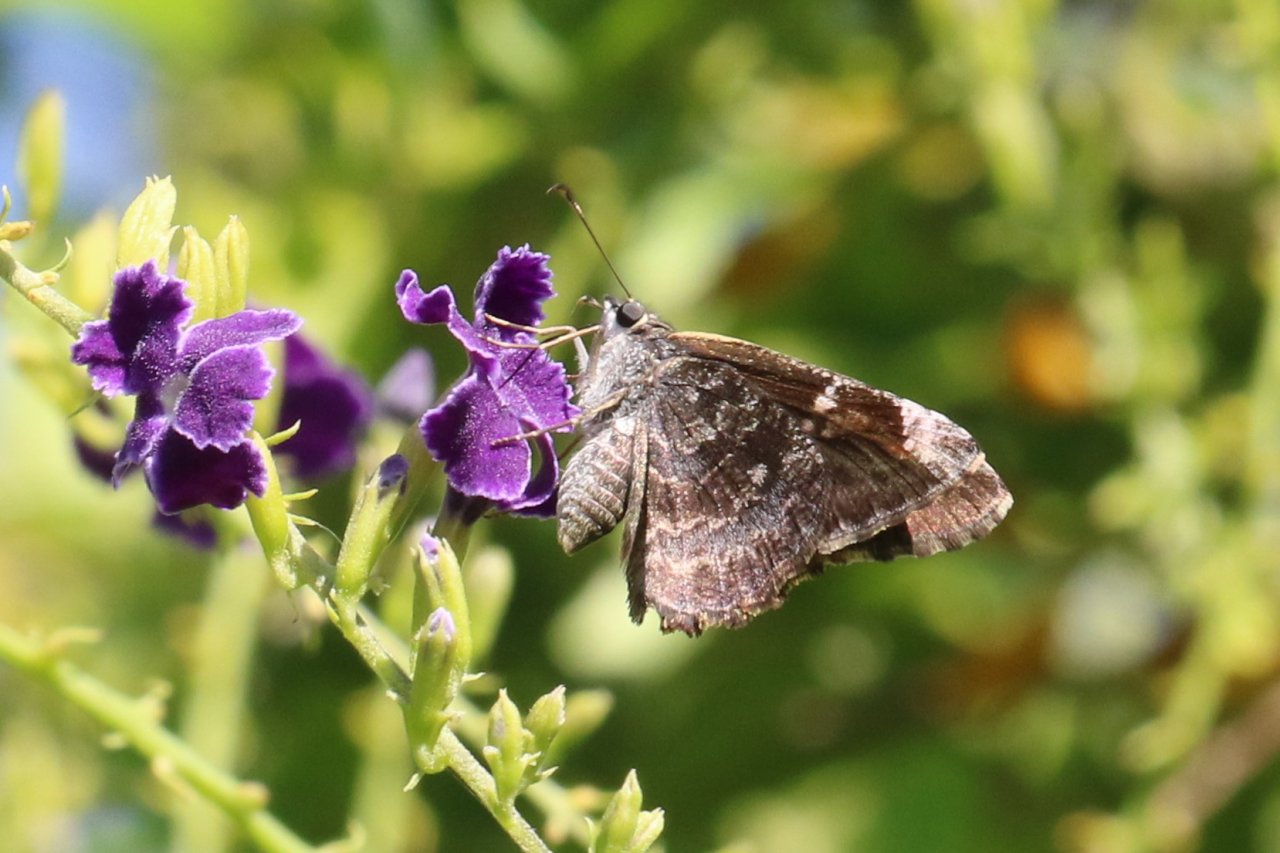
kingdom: Animalia
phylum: Arthropoda
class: Insecta
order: Lepidoptera
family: Hesperiidae
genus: Caicella
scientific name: Caicella calchas
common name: Mimosa Skipper
